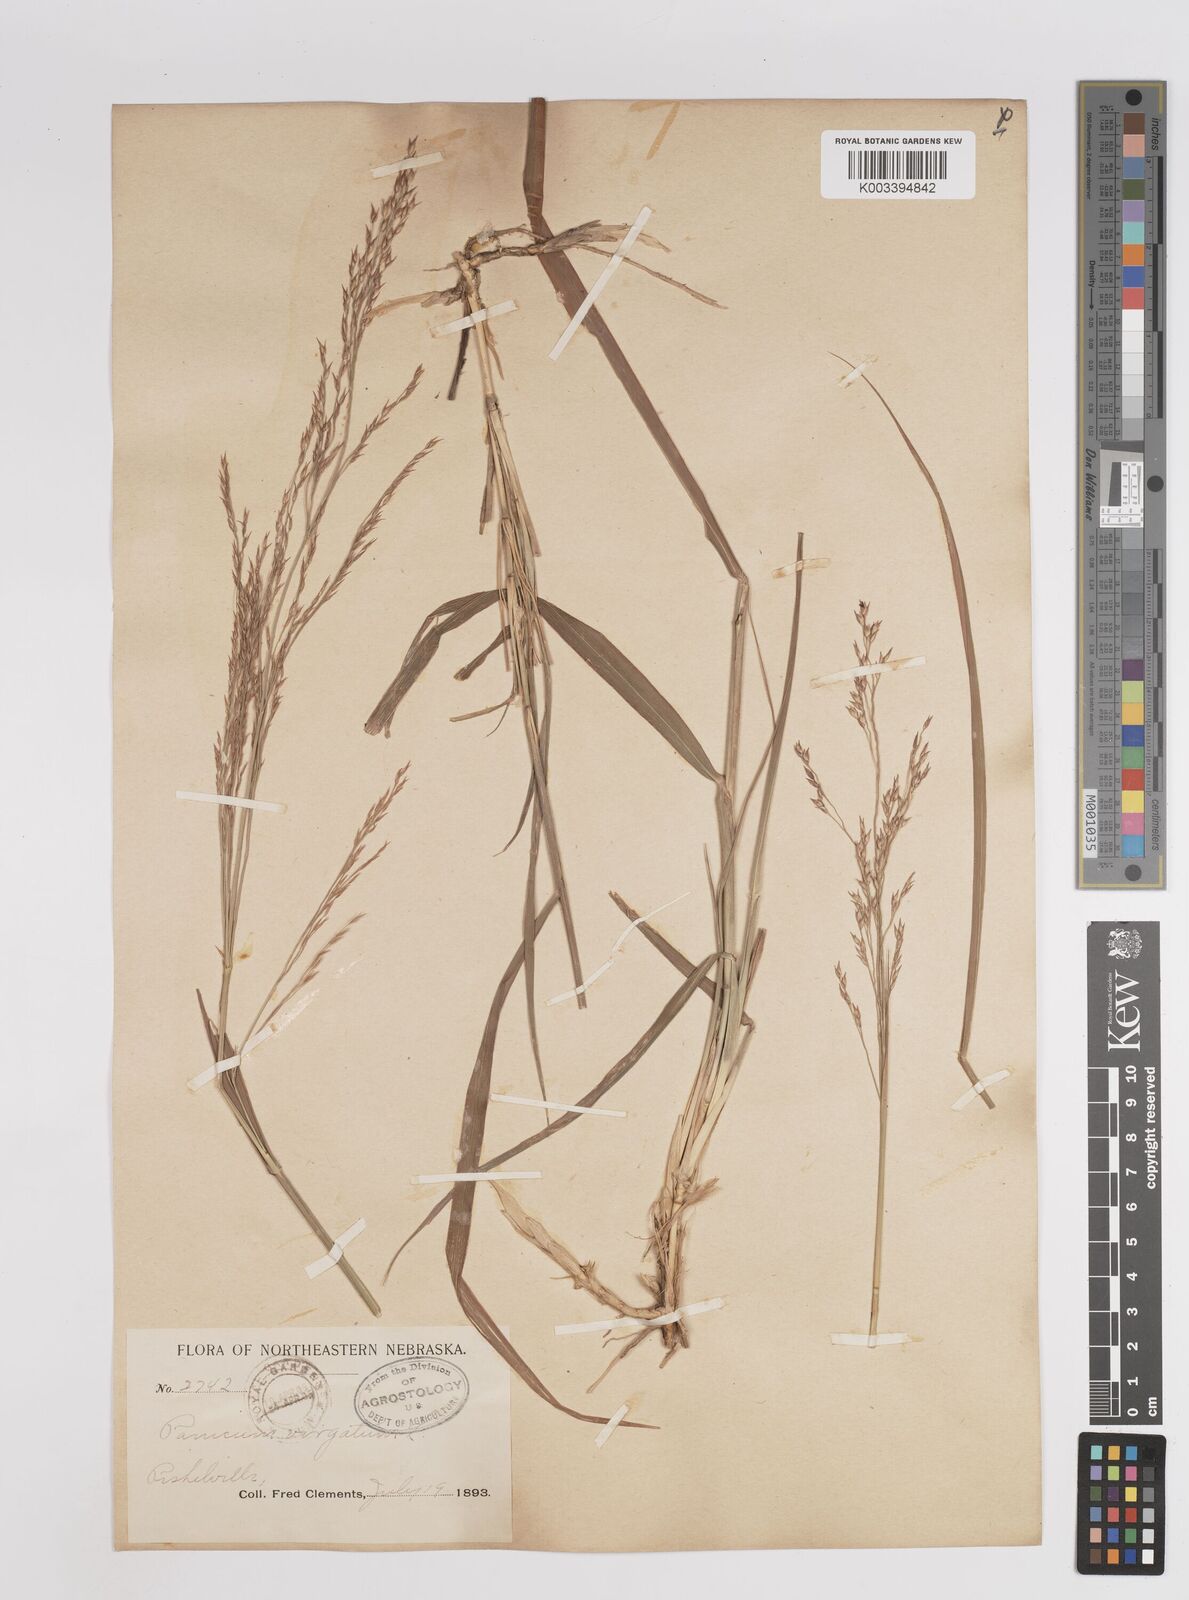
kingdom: Plantae
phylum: Tracheophyta
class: Liliopsida
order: Poales
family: Poaceae
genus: Panicum
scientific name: Panicum virgatum
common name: Switchgrass
